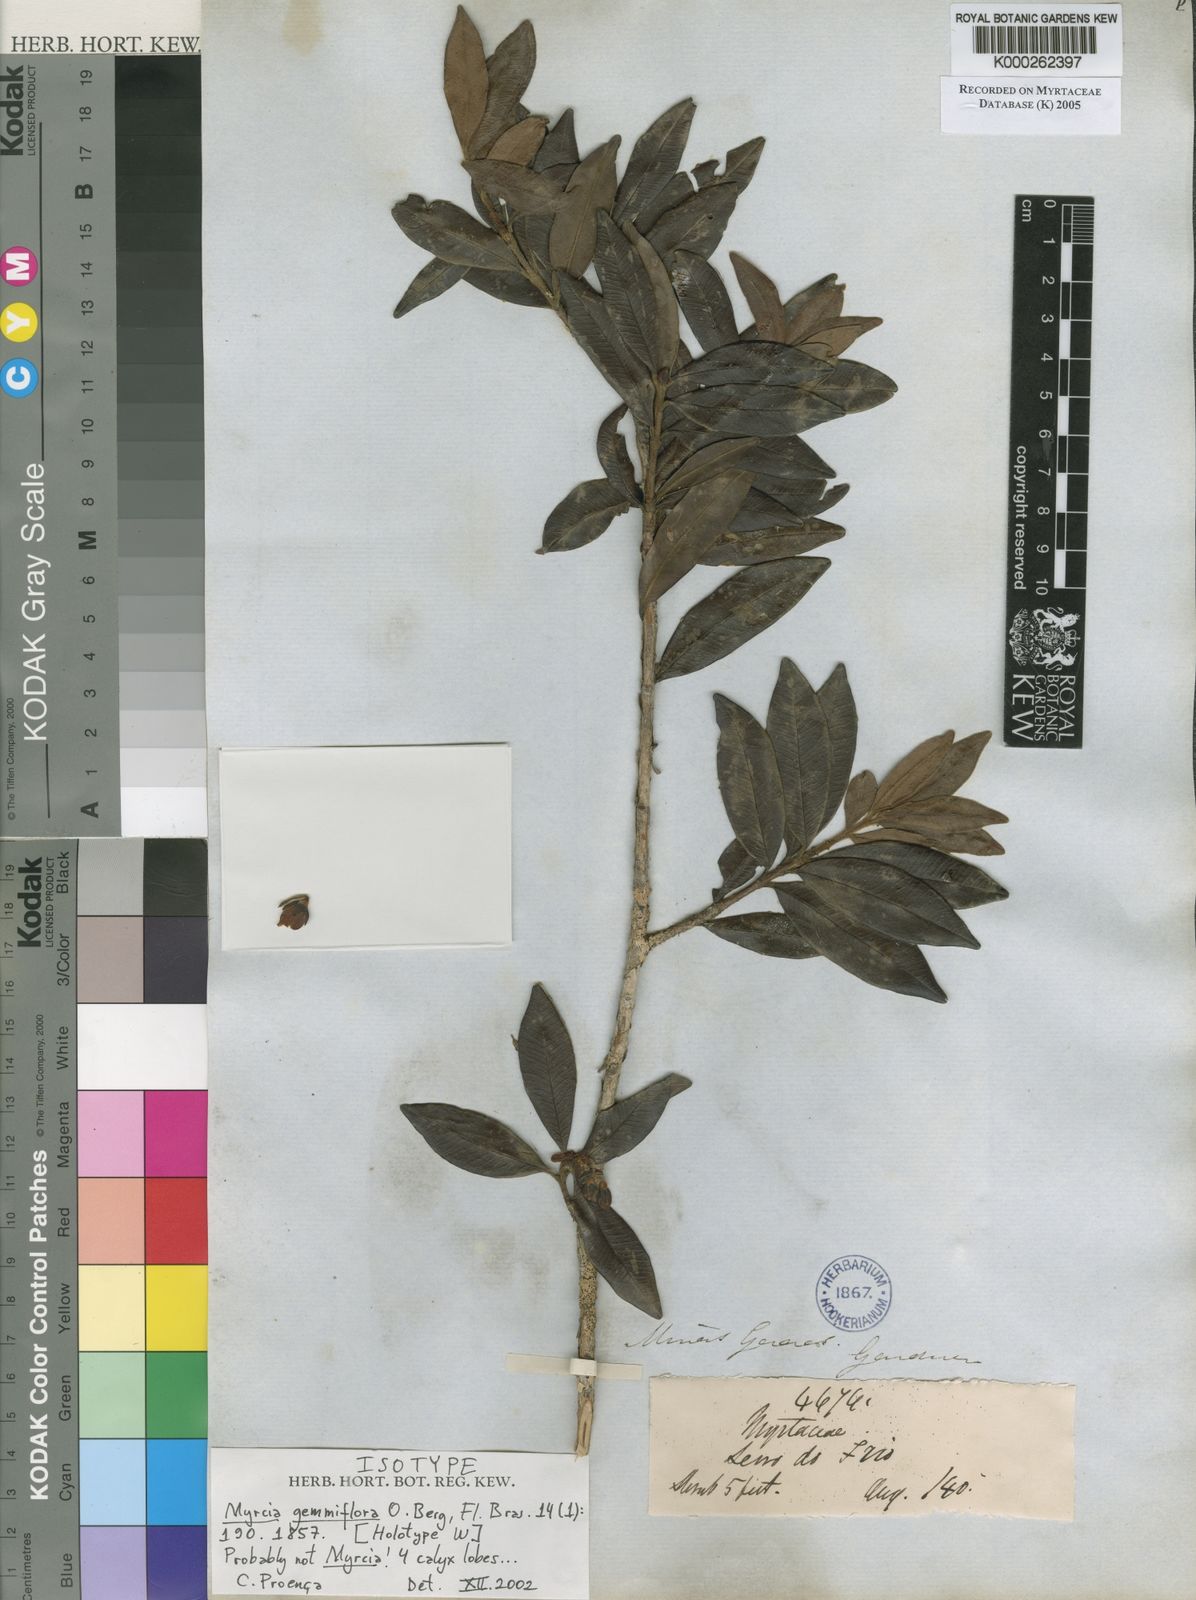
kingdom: Plantae
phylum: Tracheophyta
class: Magnoliopsida
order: Myrtales
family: Myrtaceae
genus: Eugenia
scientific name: Eugenia myrcianthes
